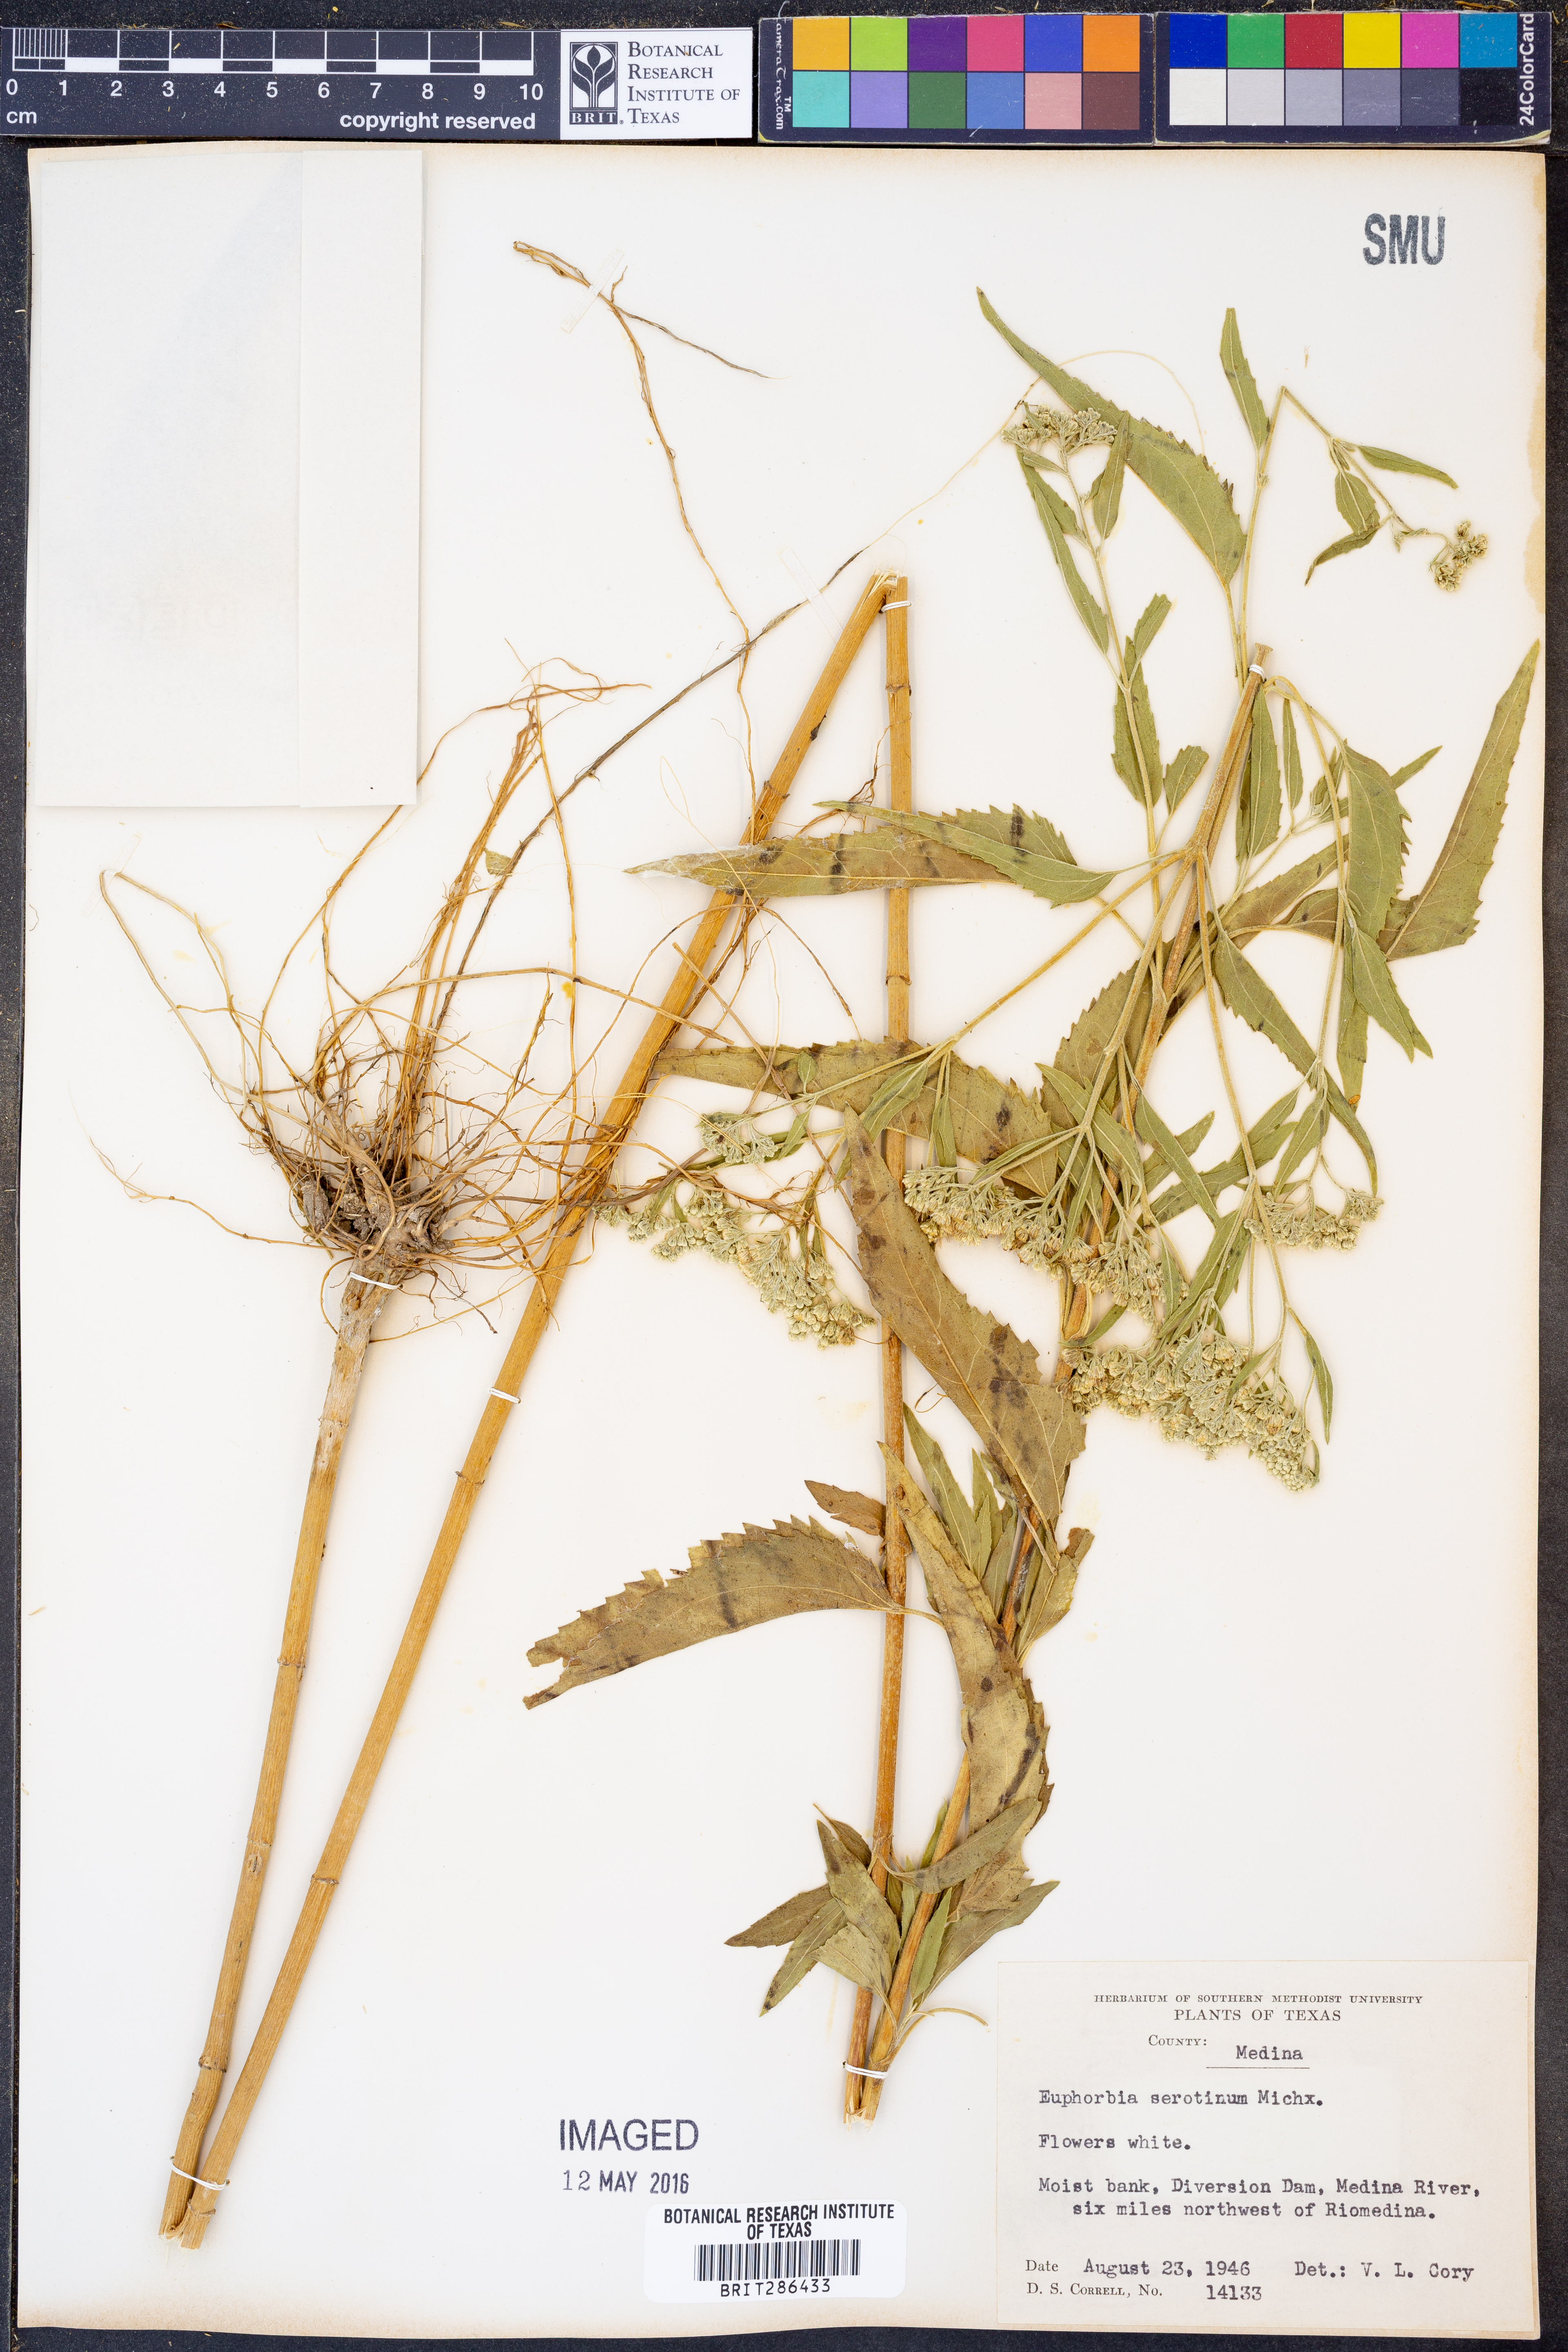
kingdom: Plantae
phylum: Tracheophyta
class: Magnoliopsida
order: Asterales
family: Asteraceae
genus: Eupatorium
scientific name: Eupatorium serotinum
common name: Late boneset
